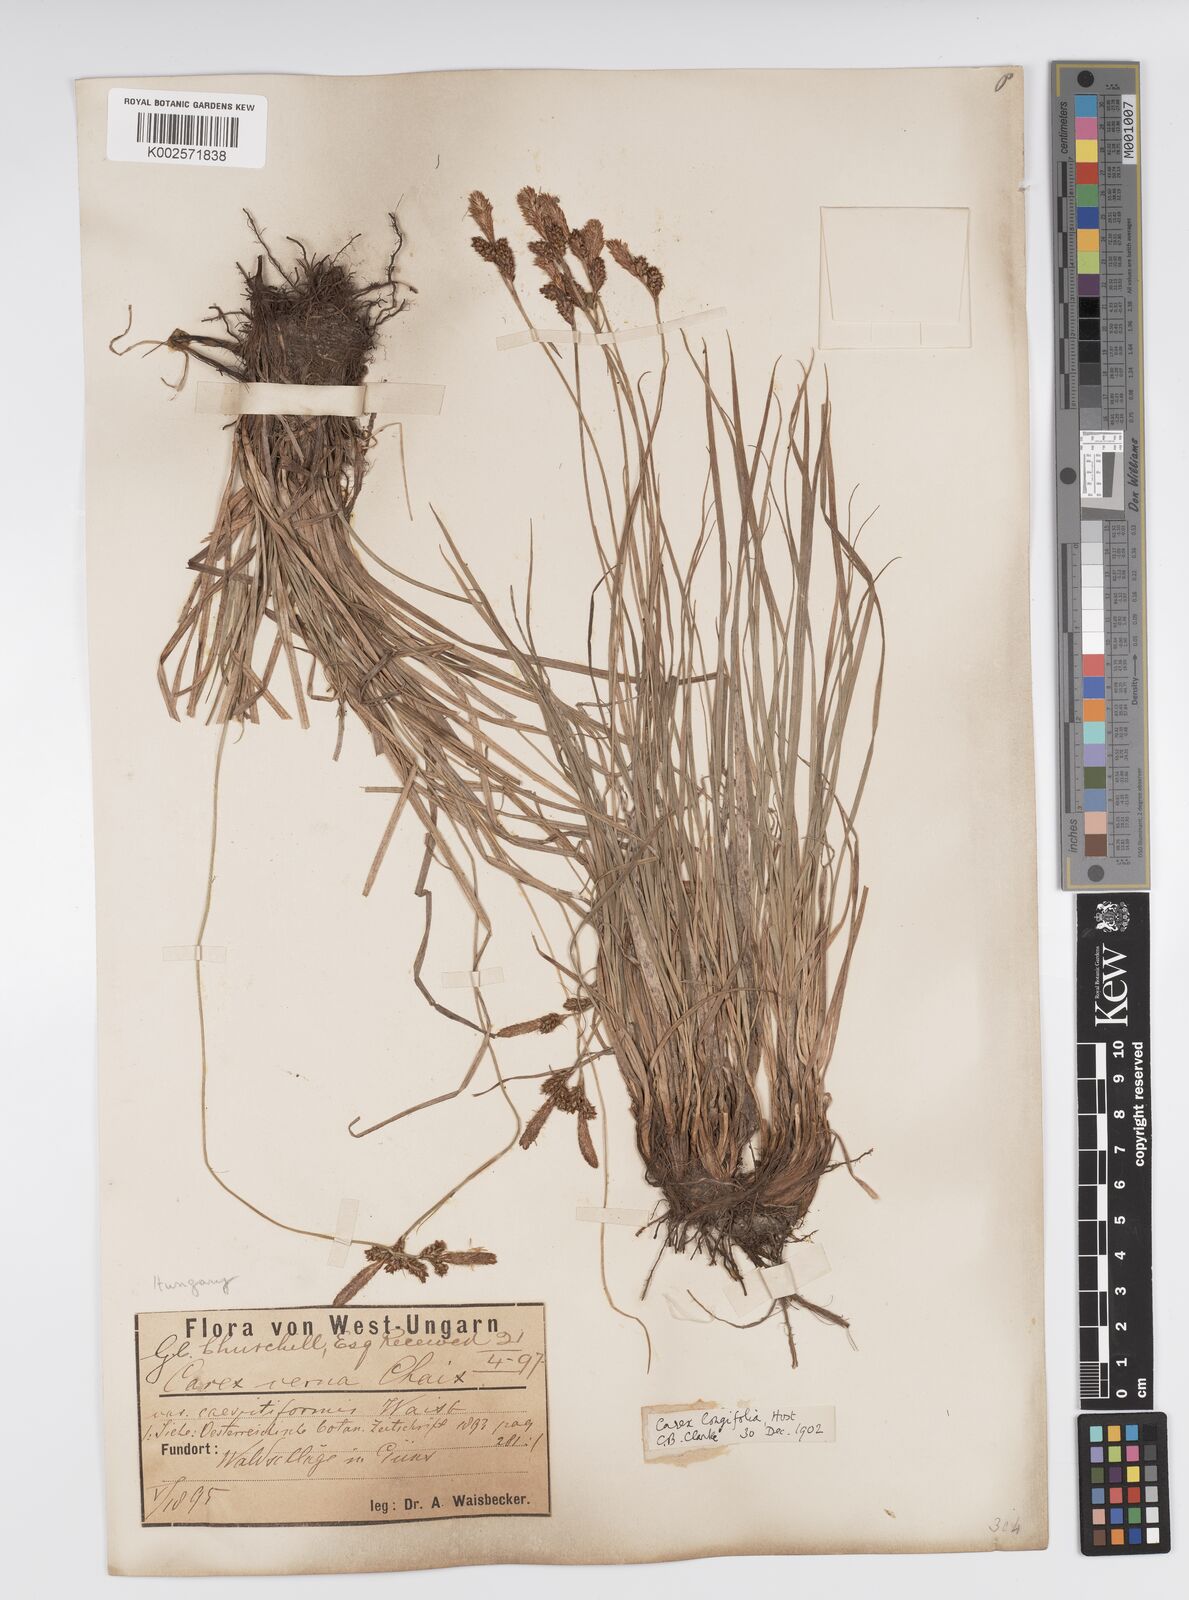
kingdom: Plantae
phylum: Tracheophyta
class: Liliopsida
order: Poales
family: Cyperaceae
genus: Carex
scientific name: Carex umbrosa
